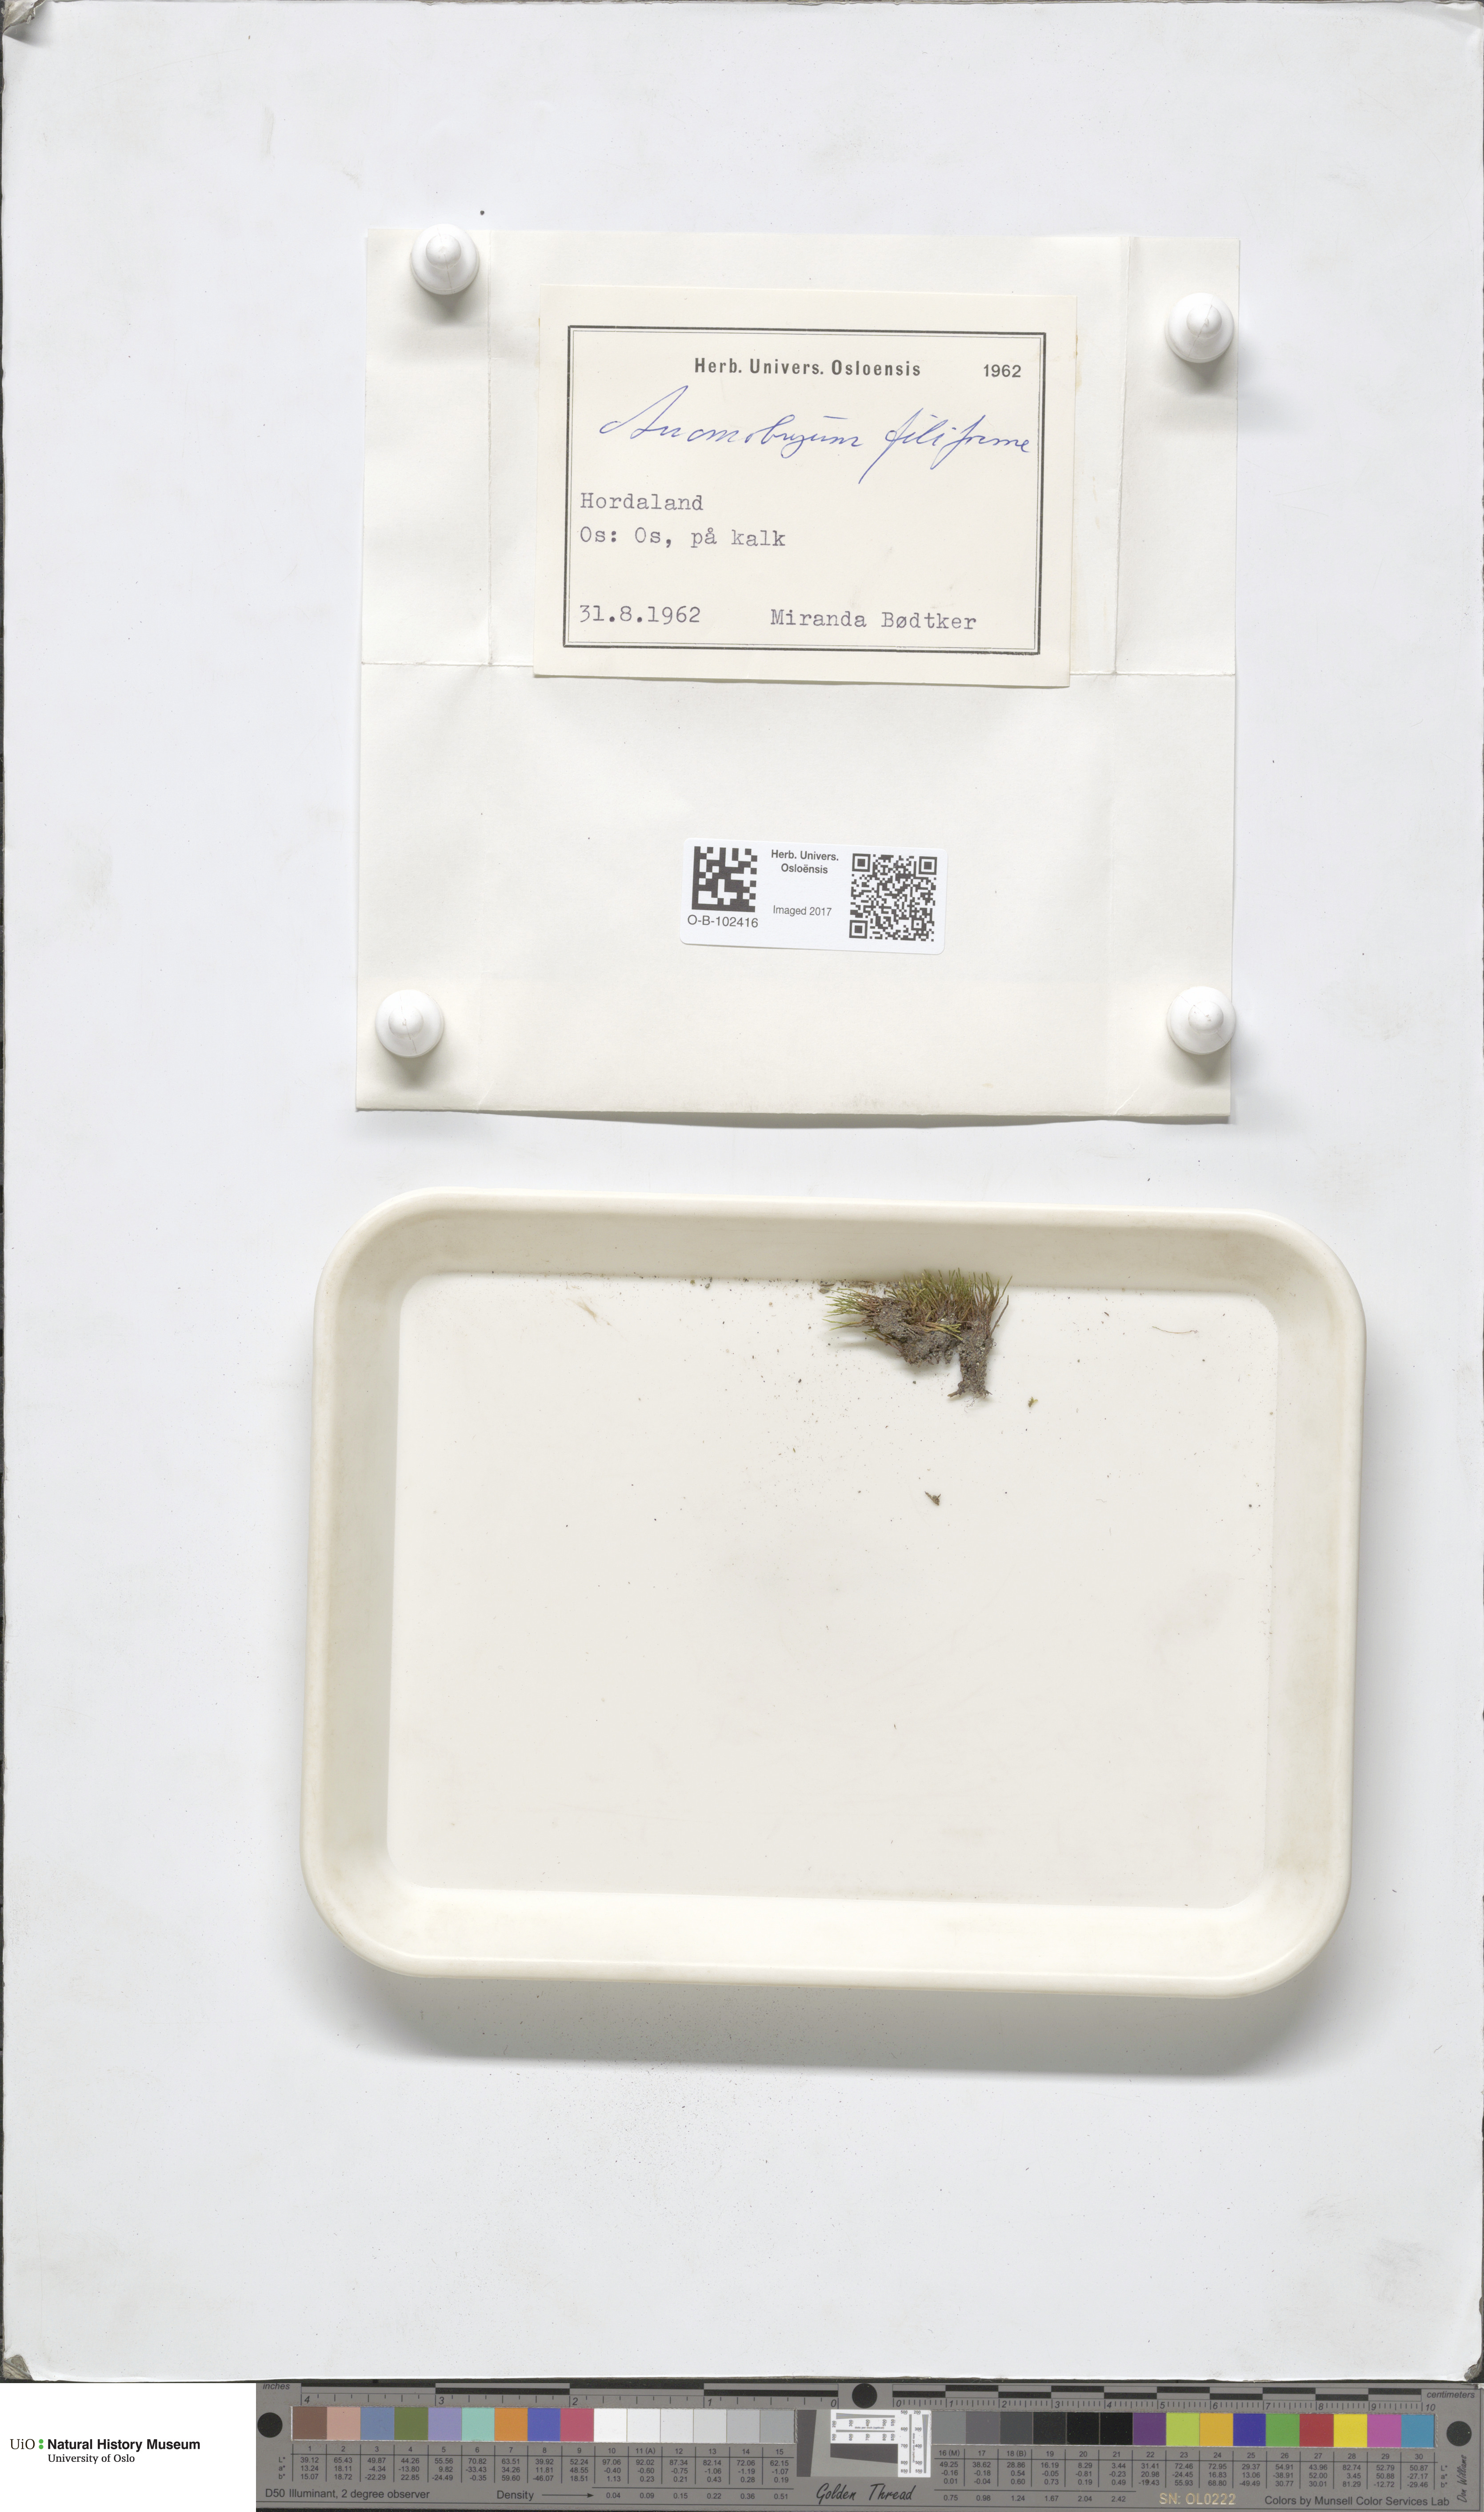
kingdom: Plantae
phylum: Bryophyta
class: Bryopsida
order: Bryales
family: Bryaceae
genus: Anomobryum
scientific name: Anomobryum julaceum
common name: Slender silver moss
